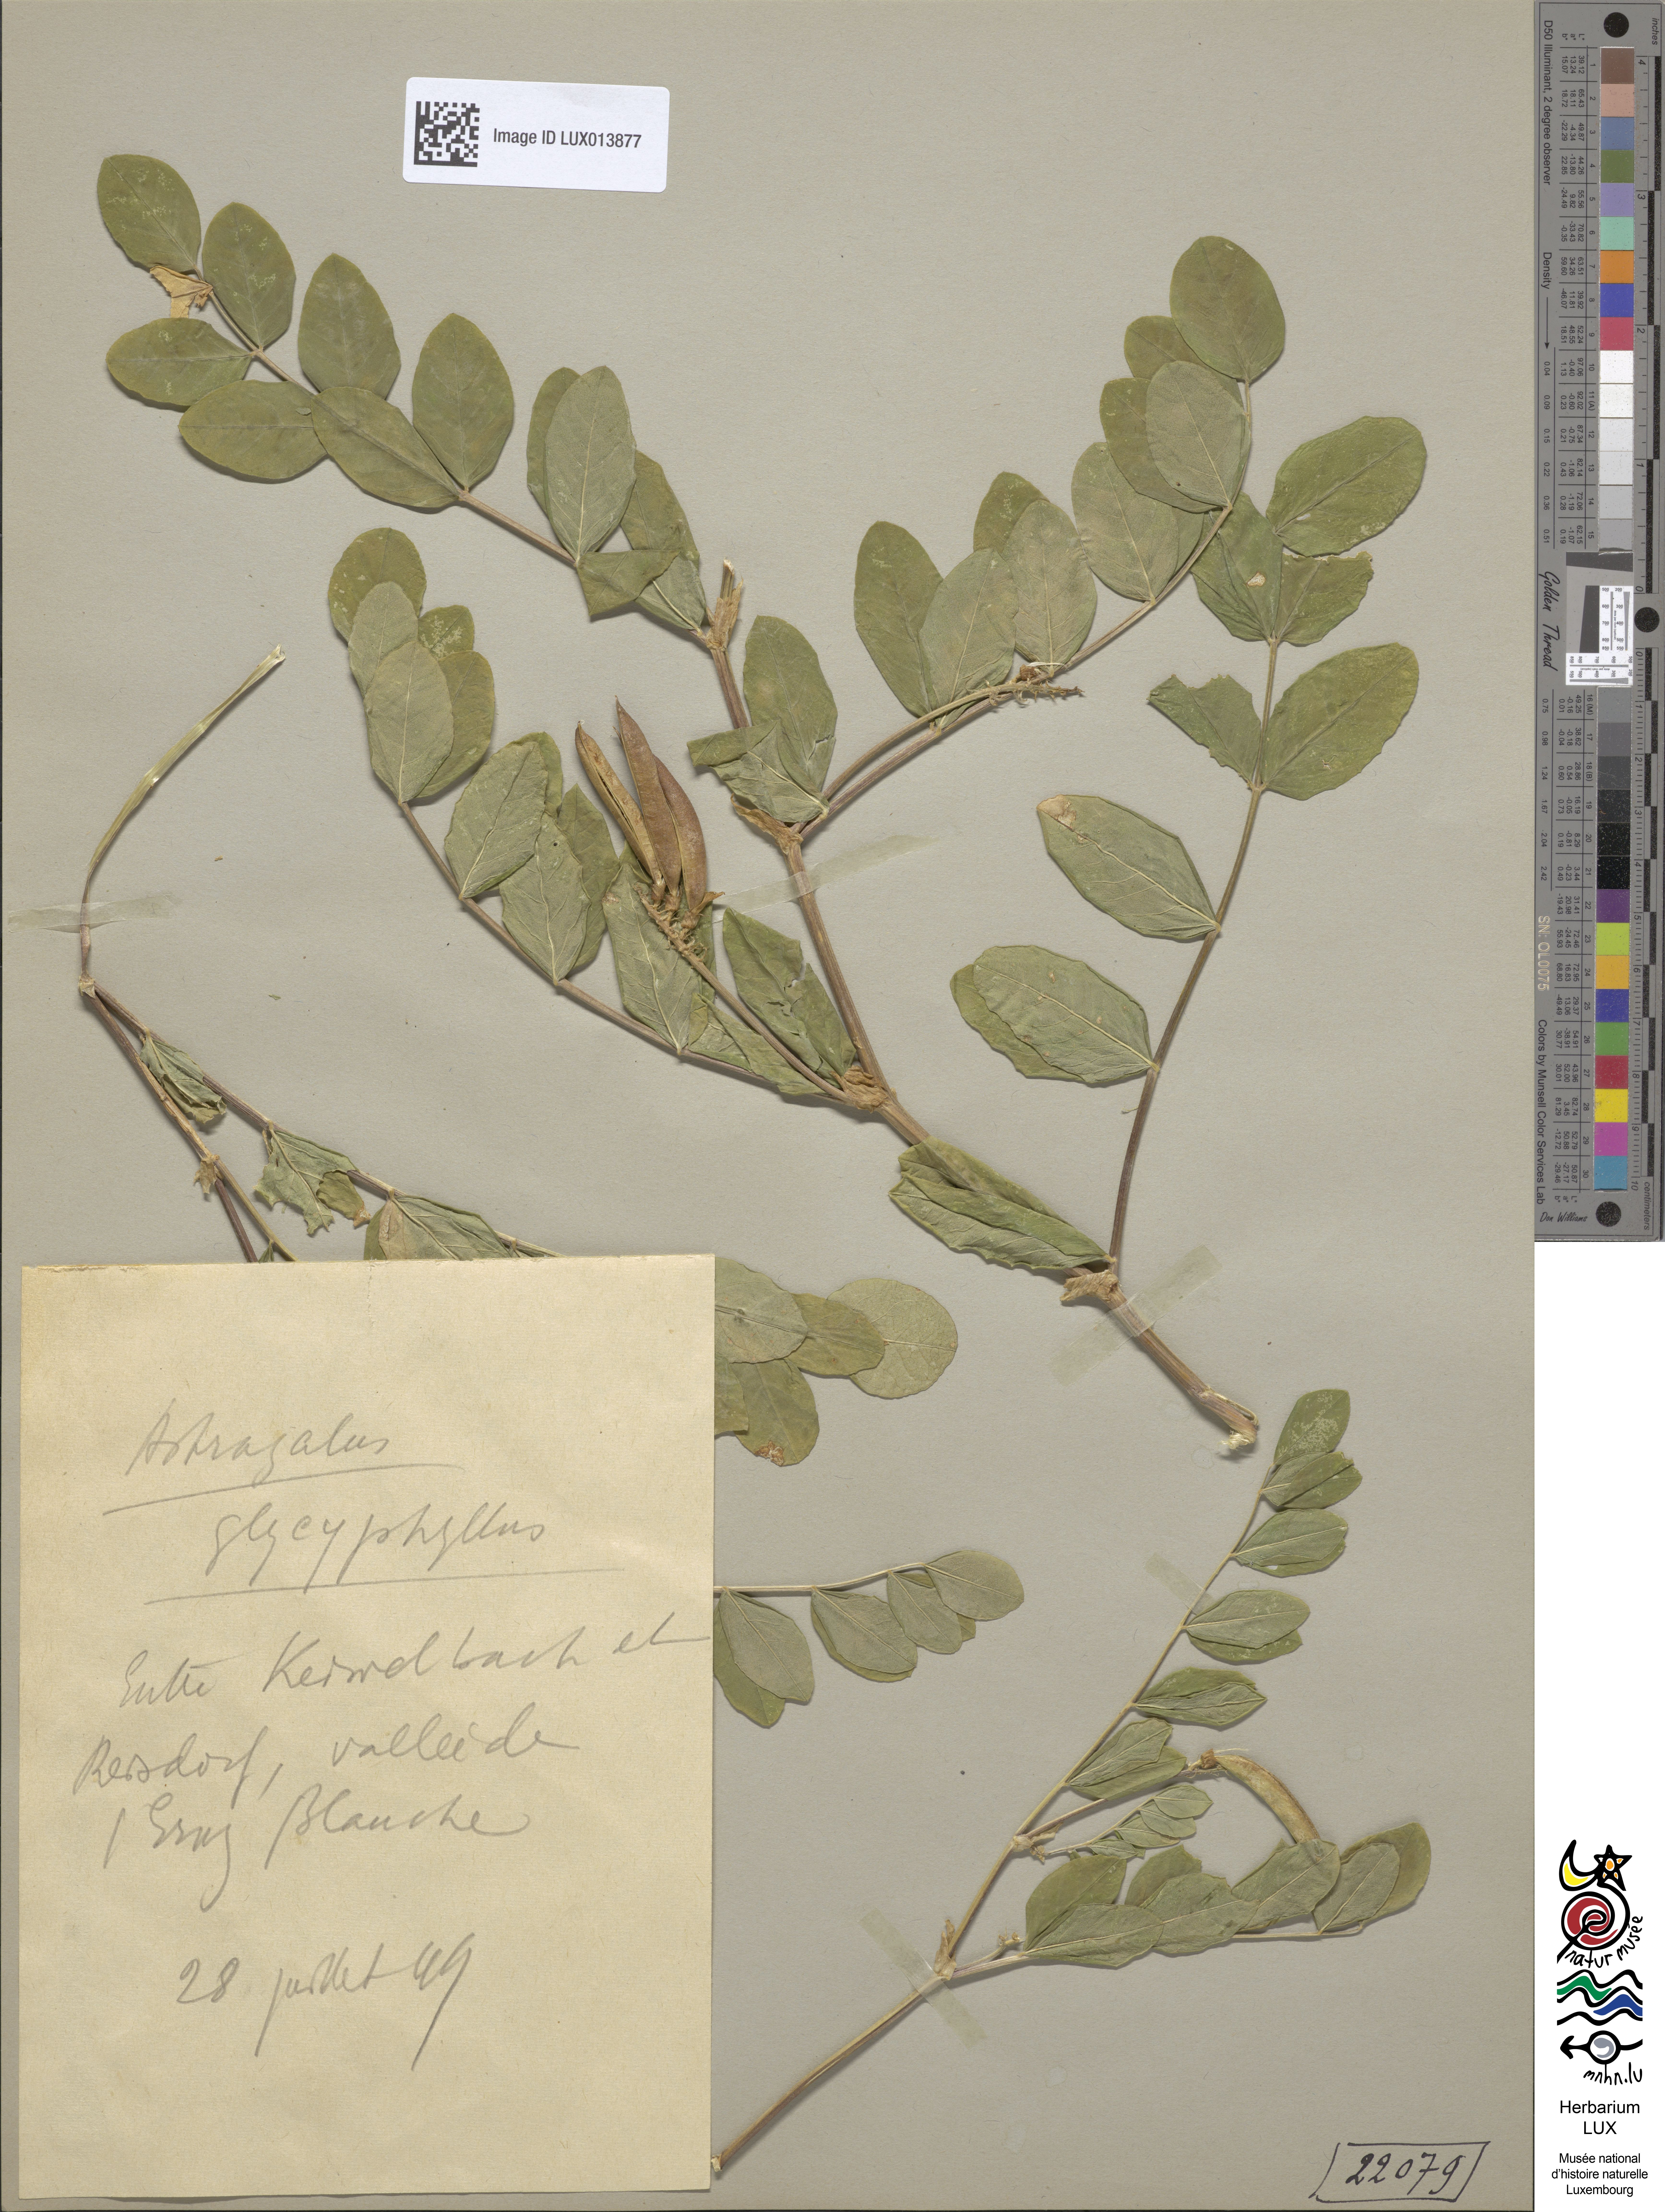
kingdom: Plantae
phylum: Tracheophyta
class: Magnoliopsida
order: Fabales
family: Fabaceae
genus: Astragalus
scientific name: Astragalus glycyphyllos
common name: Wild liquorice
